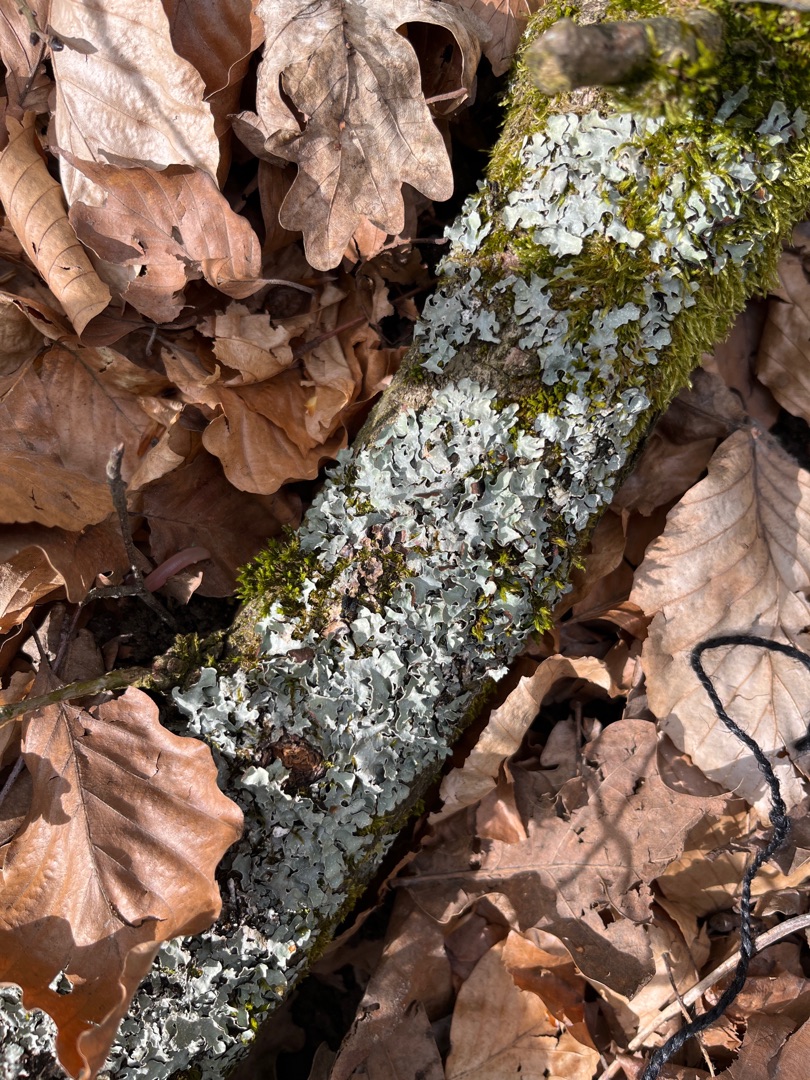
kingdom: Fungi
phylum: Ascomycota
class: Lecanoromycetes
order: Lecanorales
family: Parmeliaceae
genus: Parmelia
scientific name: Parmelia sulcata
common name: Rynket skållav
